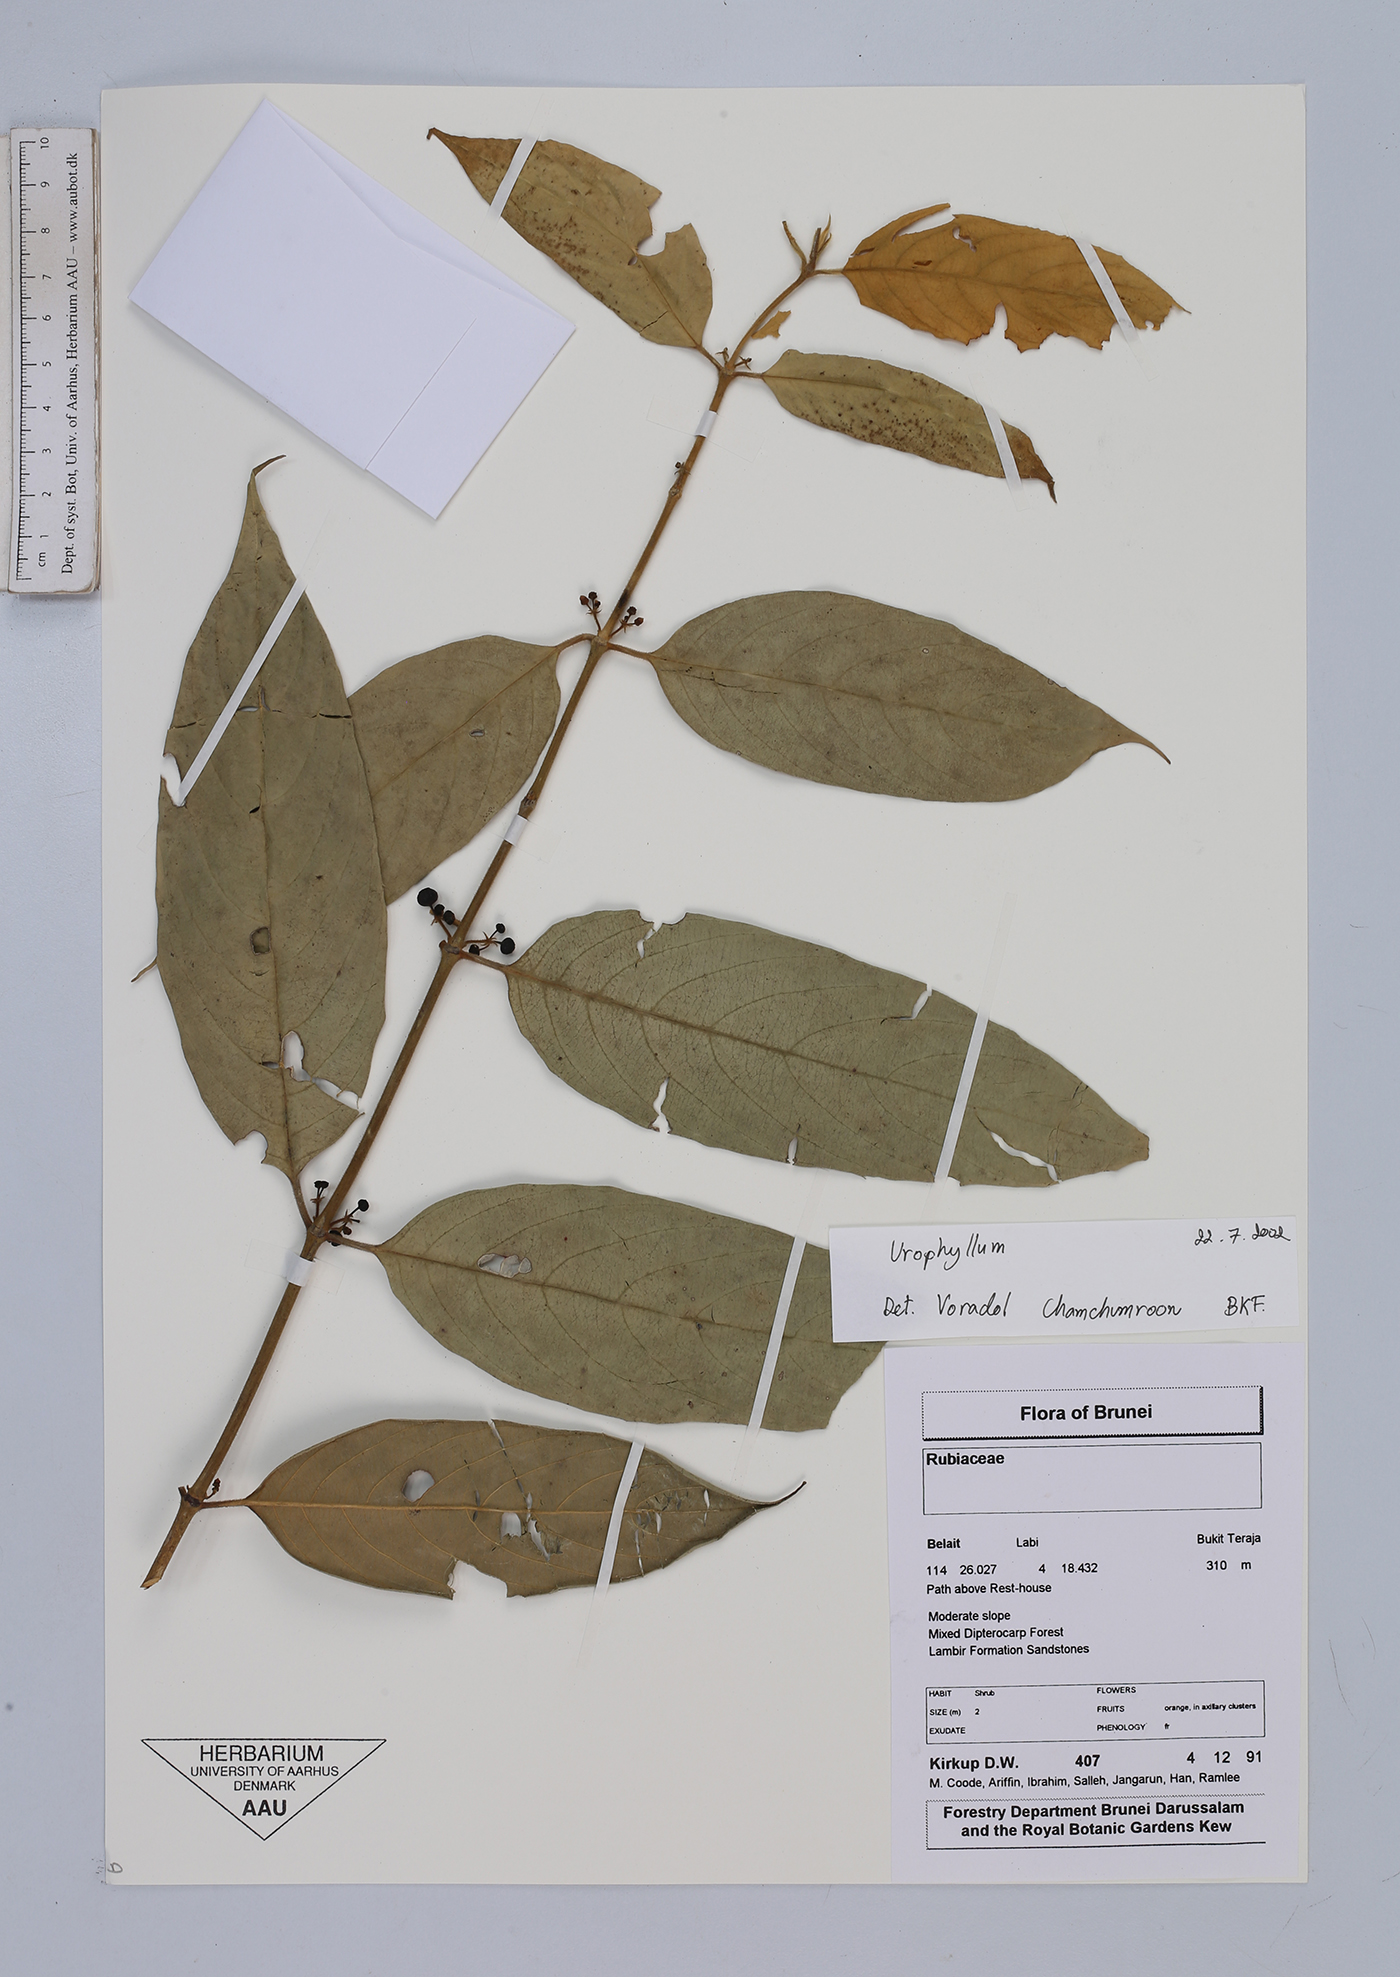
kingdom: Plantae
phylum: Tracheophyta
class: Magnoliopsida
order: Gentianales
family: Rubiaceae
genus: Urophyllum
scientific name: Urophyllum
